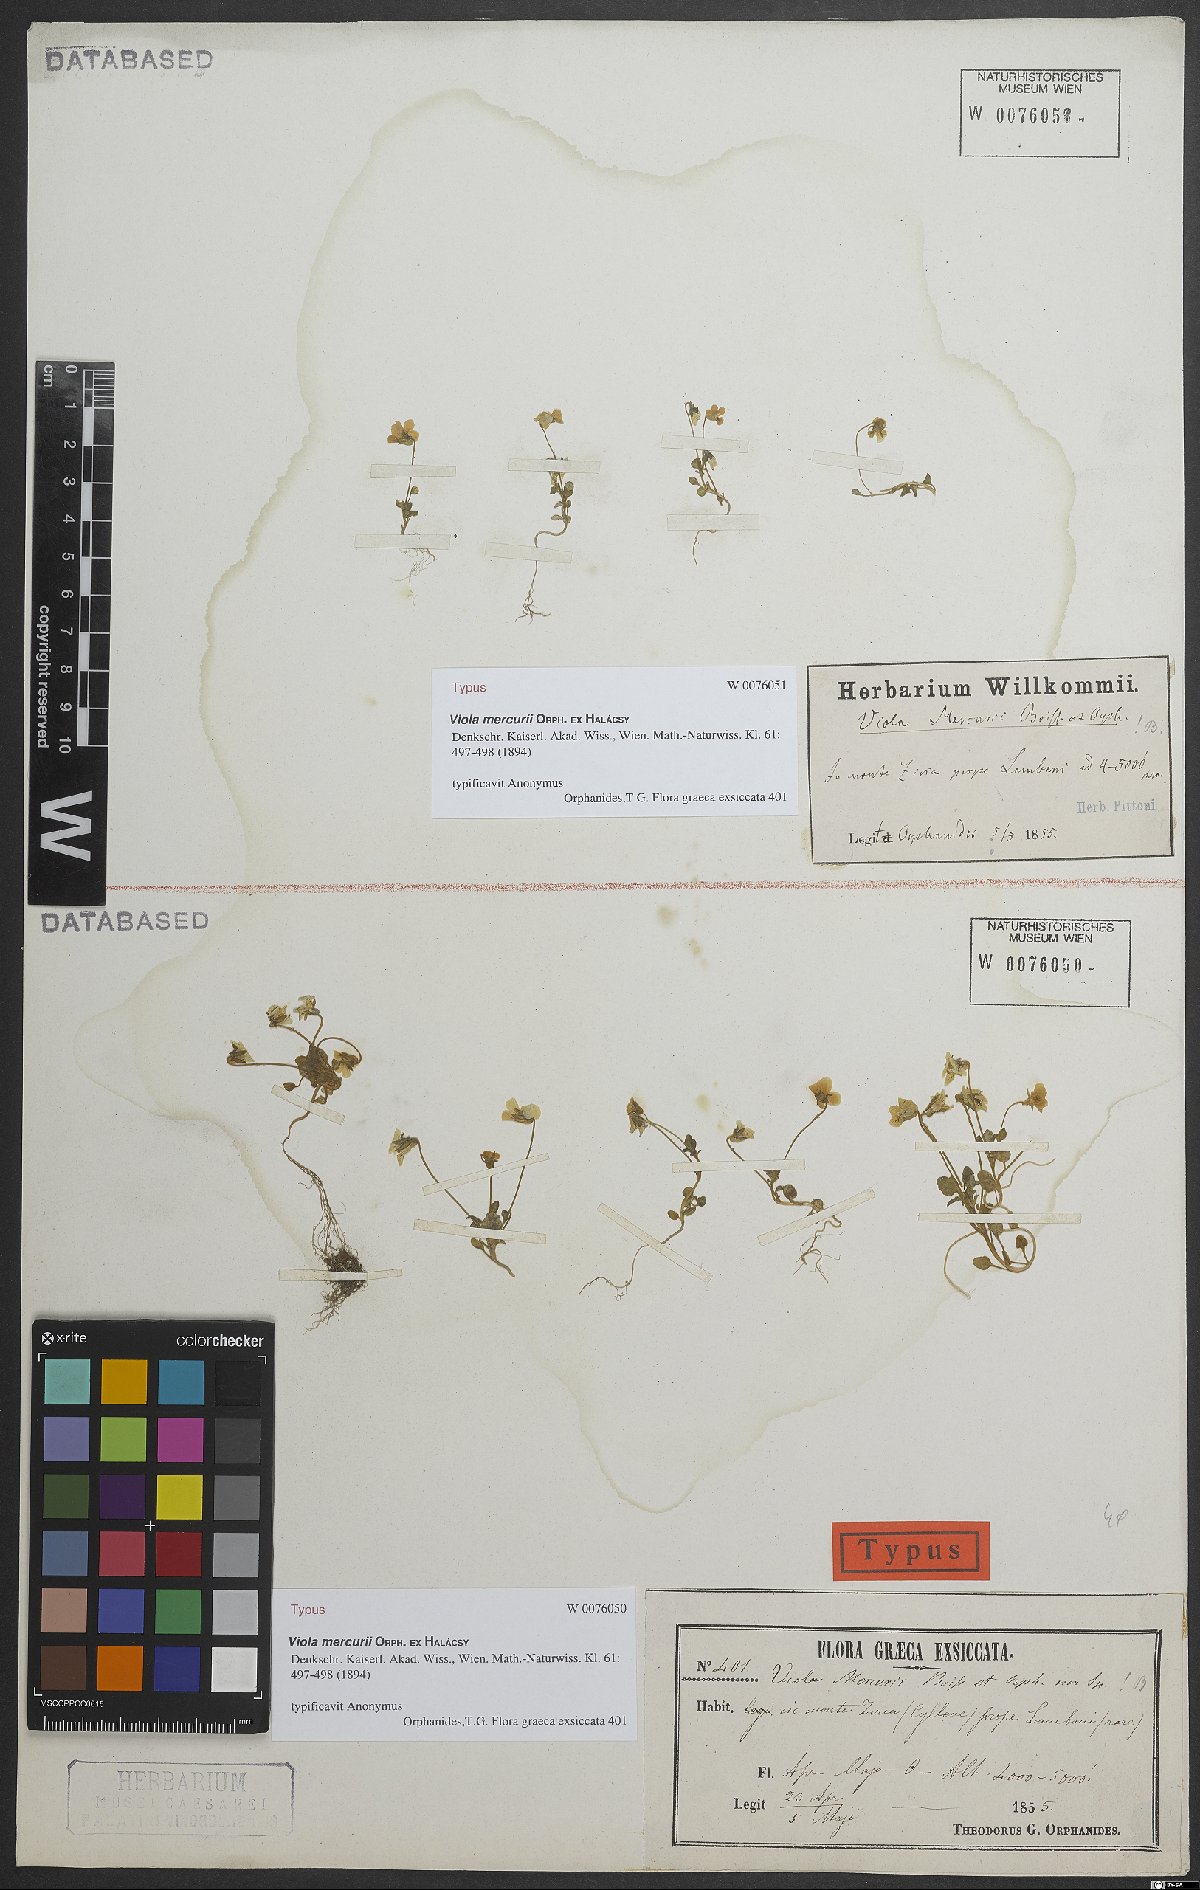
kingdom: Plantae
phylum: Tracheophyta
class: Magnoliopsida
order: Malpighiales
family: Violaceae
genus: Viola
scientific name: Viola mercurii
